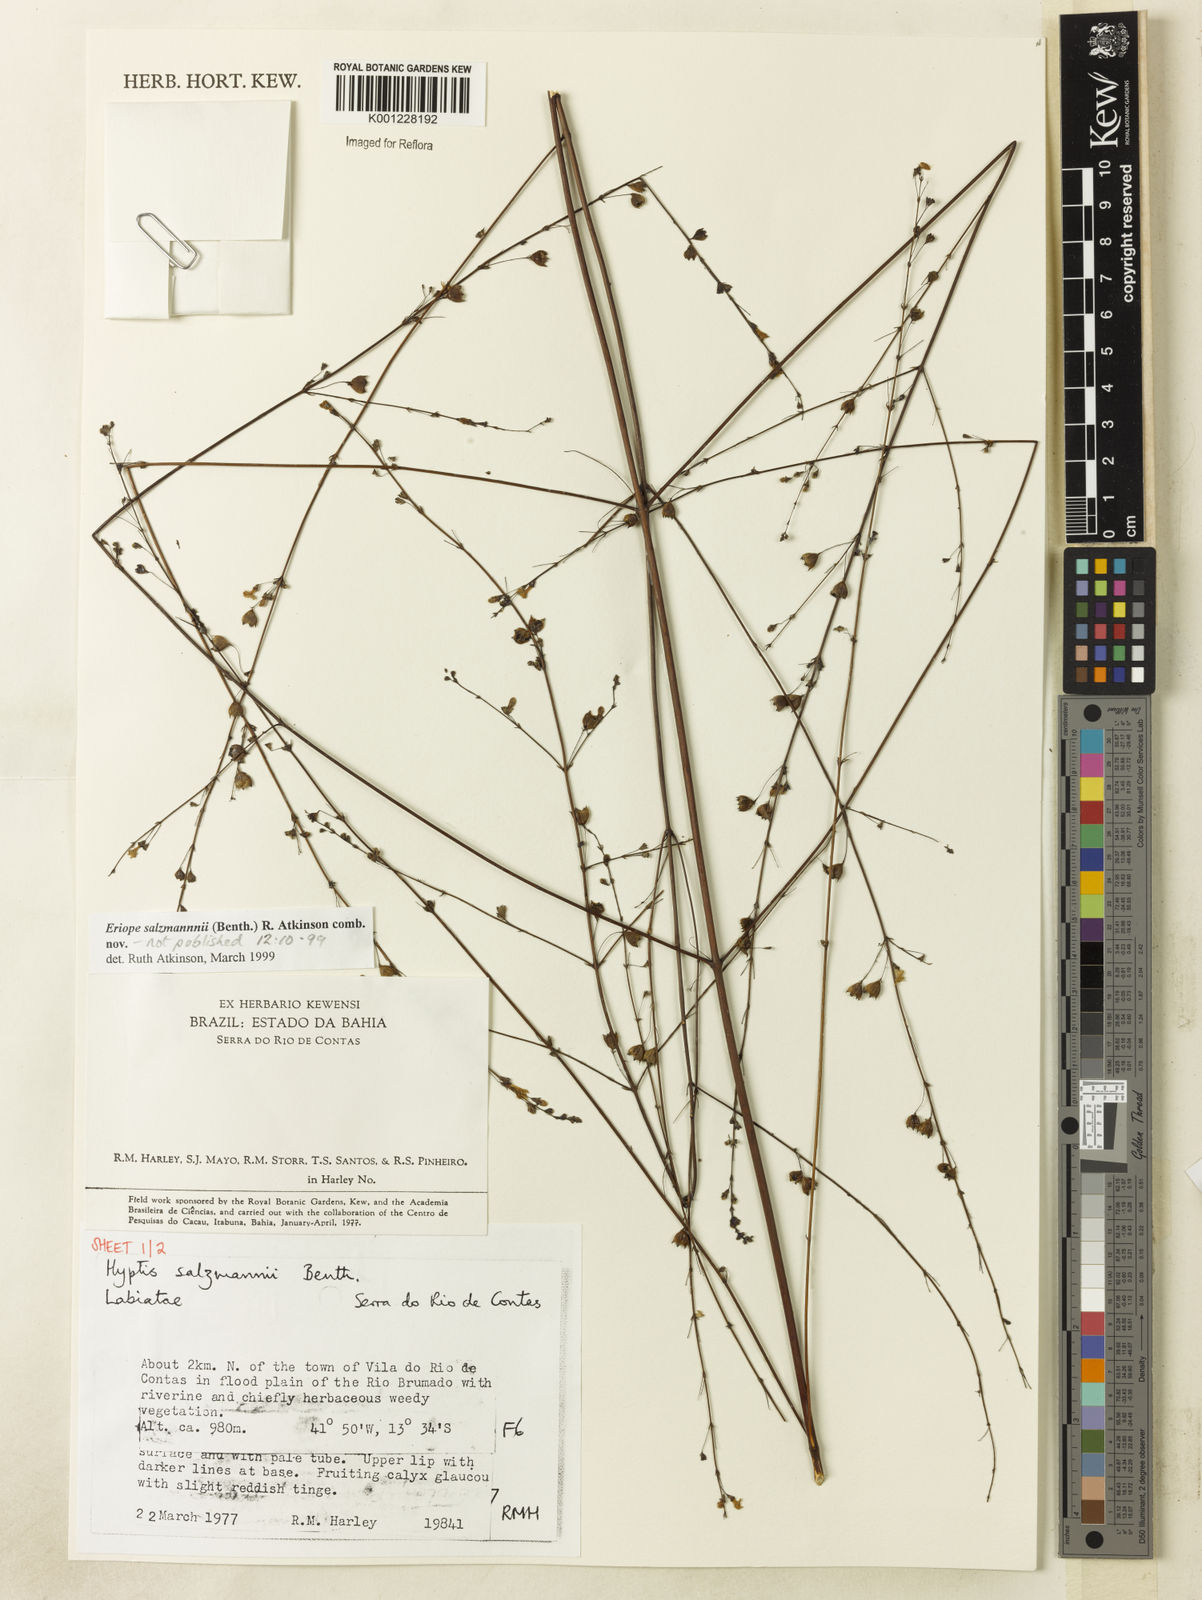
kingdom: Plantae
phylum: Tracheophyta
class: Magnoliopsida
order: Lamiales
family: Lamiaceae
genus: Hypenia
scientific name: Hypenia salzmannii
